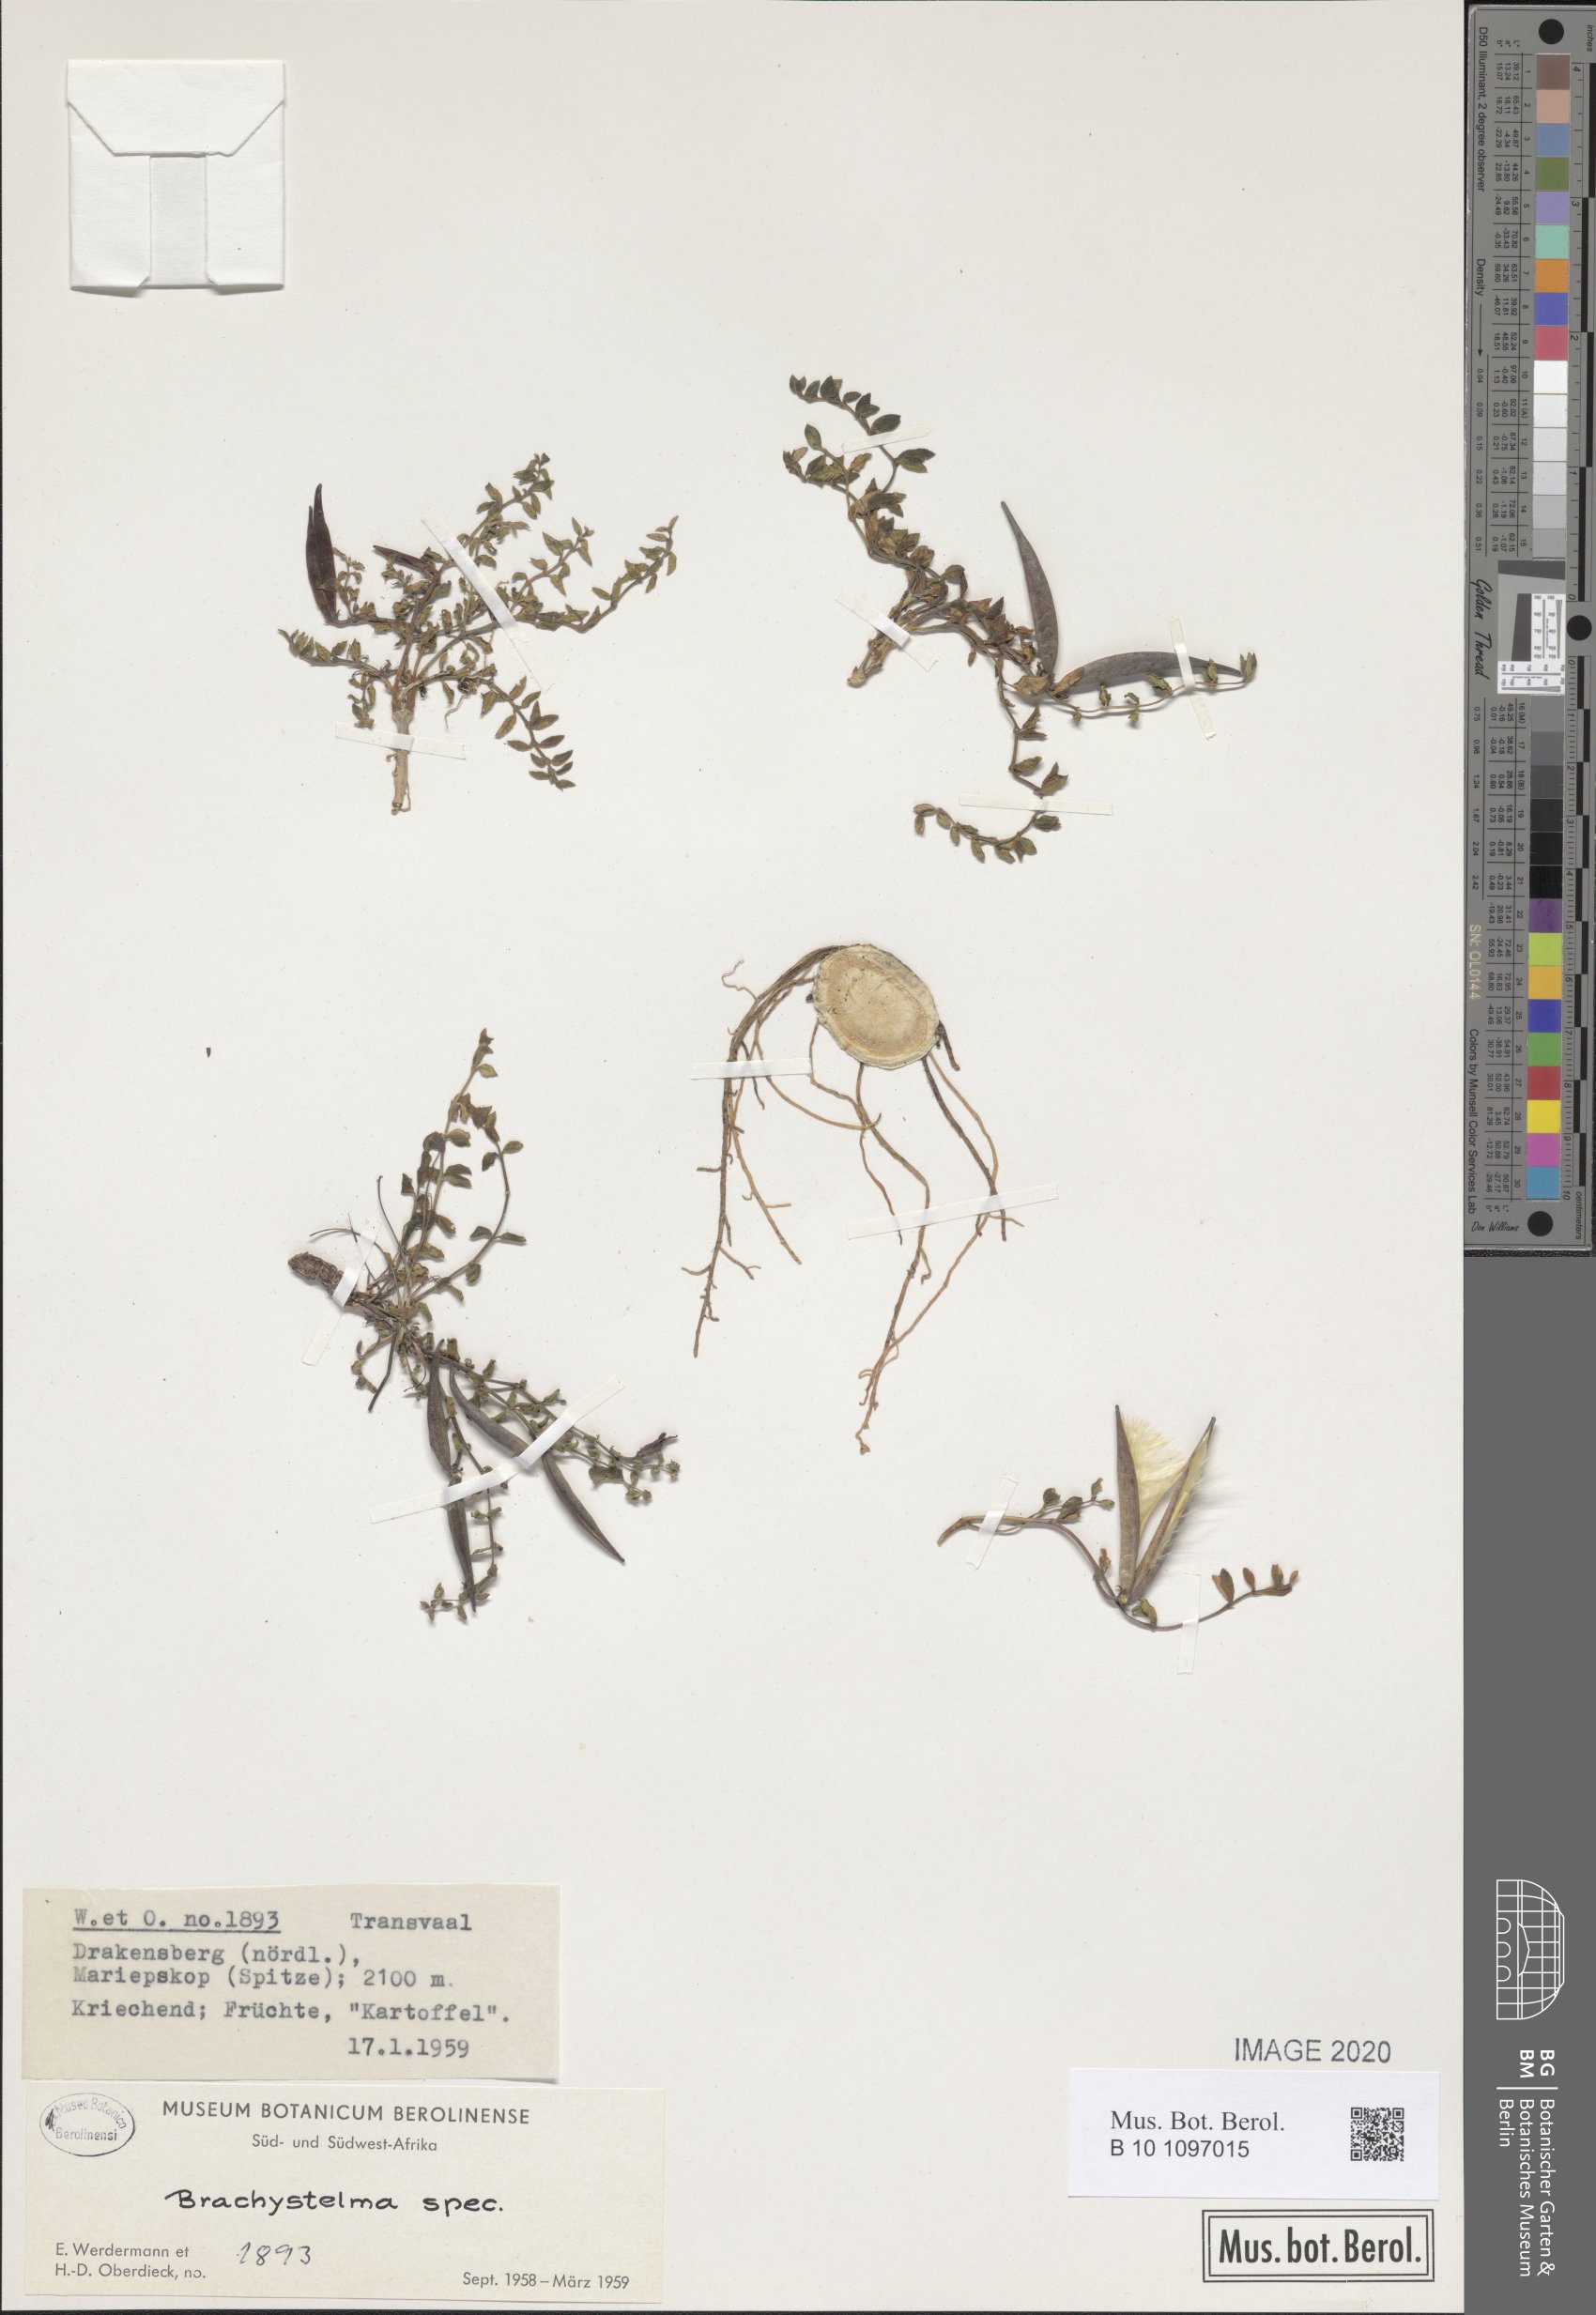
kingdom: Plantae
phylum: Tracheophyta
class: Magnoliopsida
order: Gentianales
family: Apocynaceae
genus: Ceropegia
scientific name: Ceropegia
